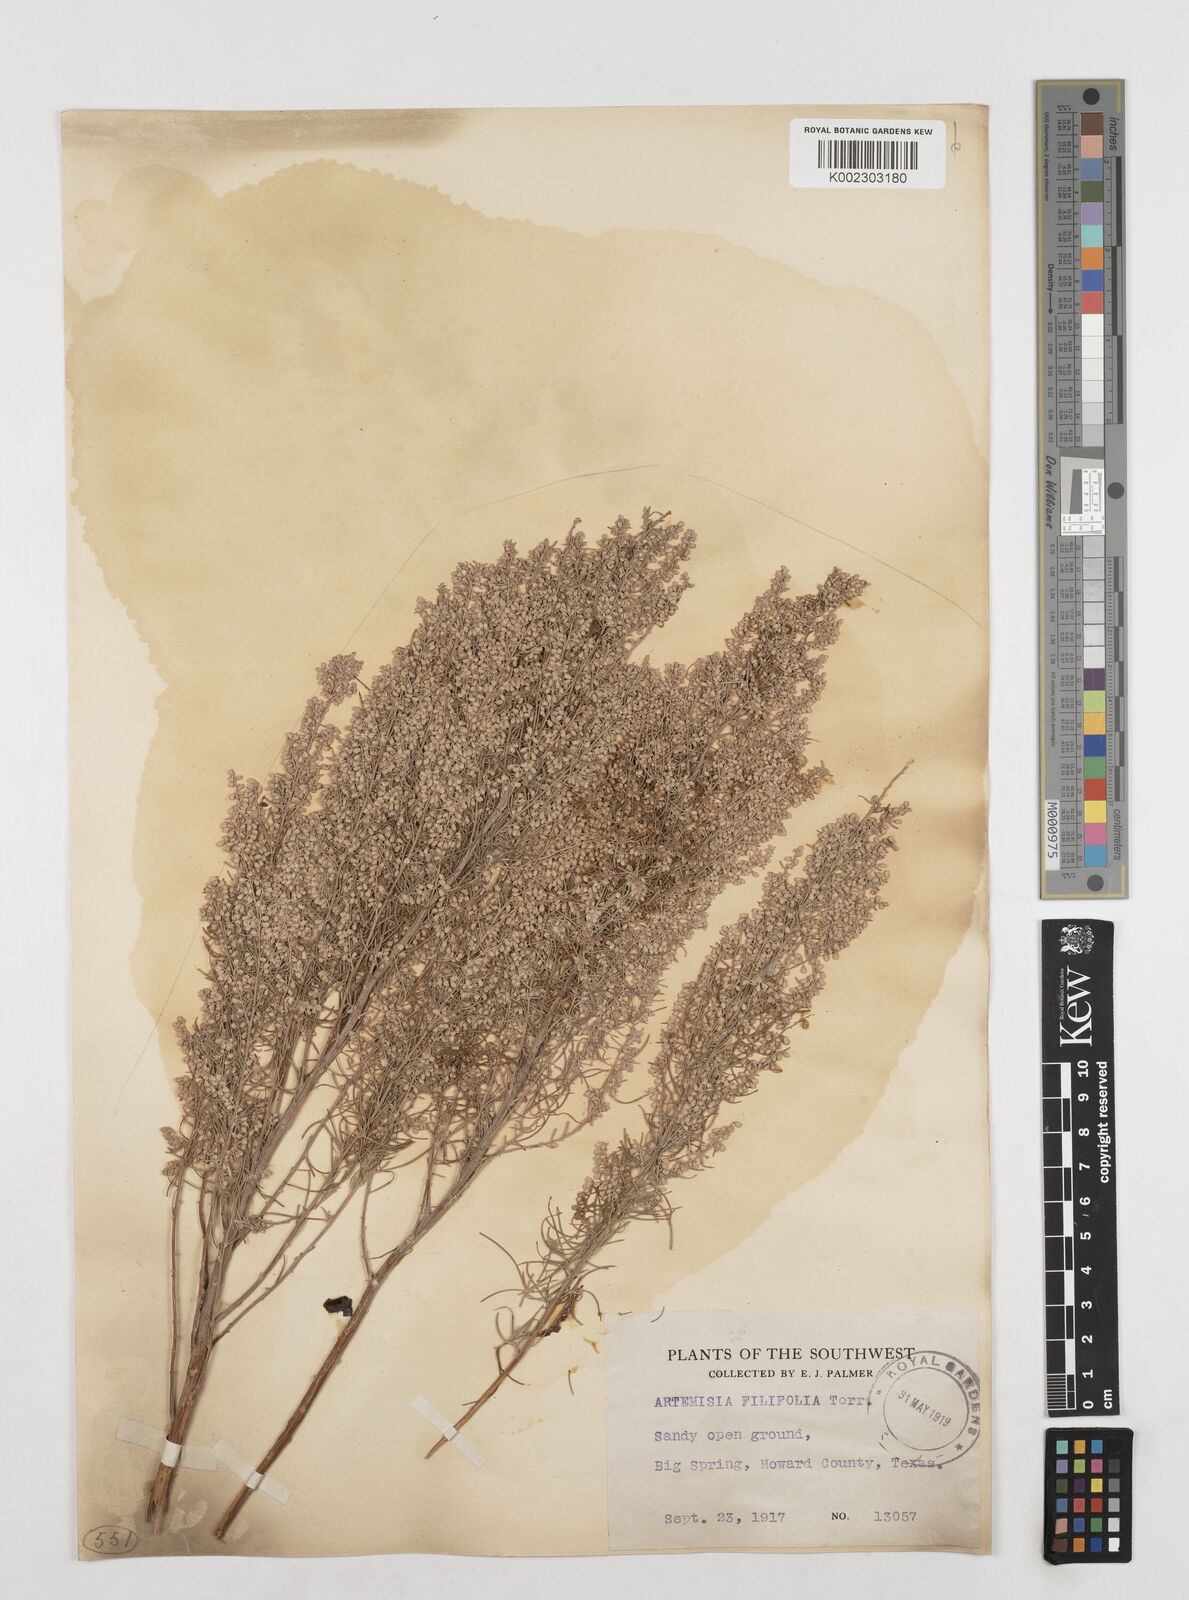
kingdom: Plantae
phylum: Tracheophyta
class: Magnoliopsida
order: Asterales
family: Asteraceae
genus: Artemisia
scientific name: Artemisia filifolia
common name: Sand-sage
